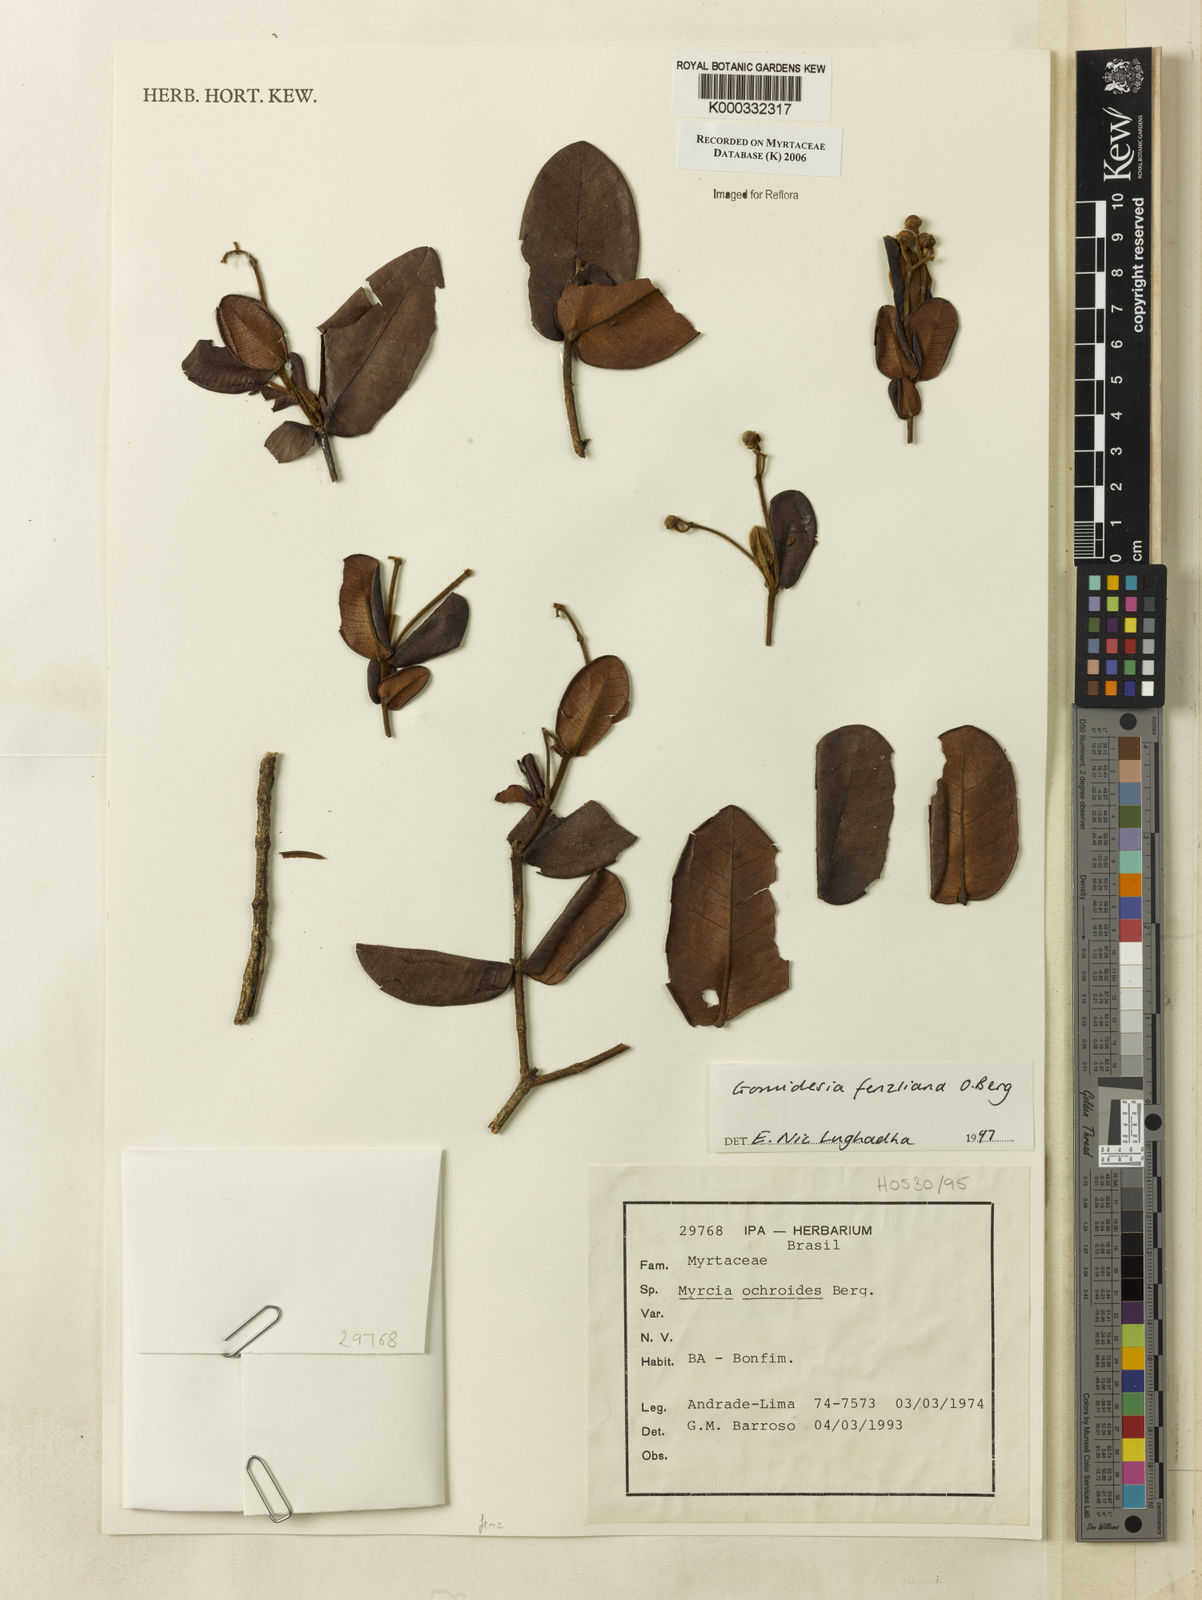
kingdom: Plantae
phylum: Tracheophyta
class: Magnoliopsida
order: Myrtales
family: Myrtaceae
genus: Myrcia
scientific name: Myrcia ilheosensis
